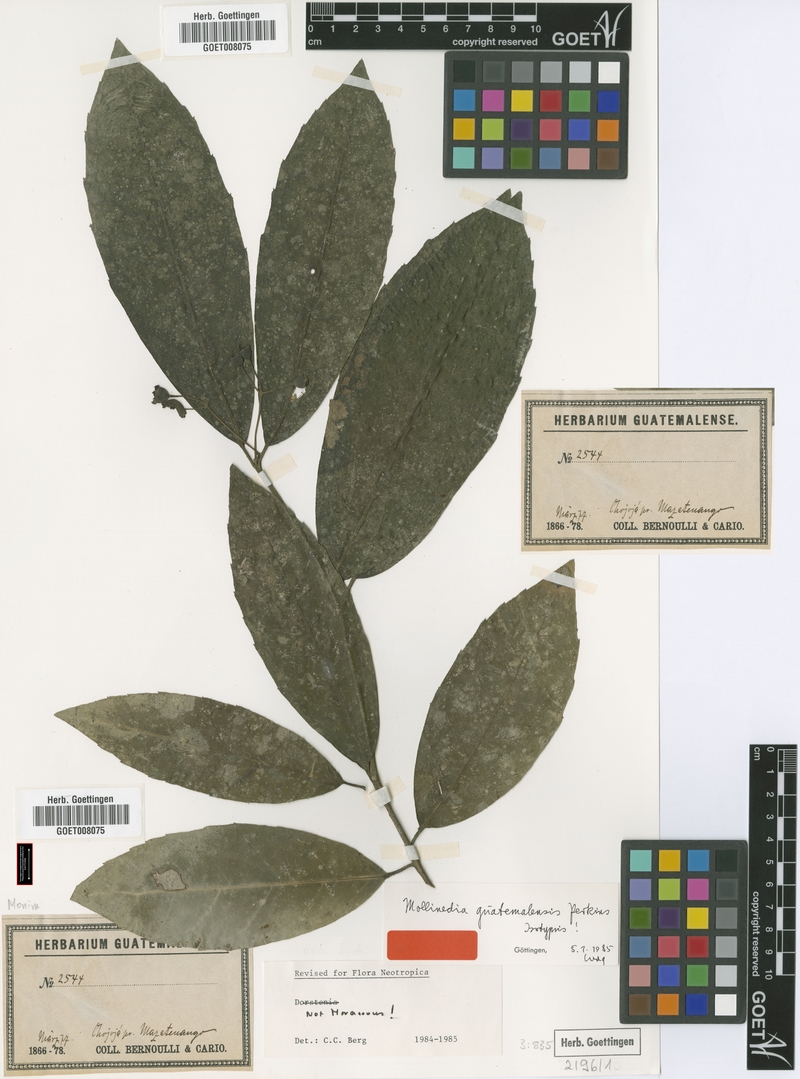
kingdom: Plantae
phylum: Tracheophyta
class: Magnoliopsida
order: Laurales
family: Monimiaceae
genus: Mollinedia
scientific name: Mollinedia viridiflora
